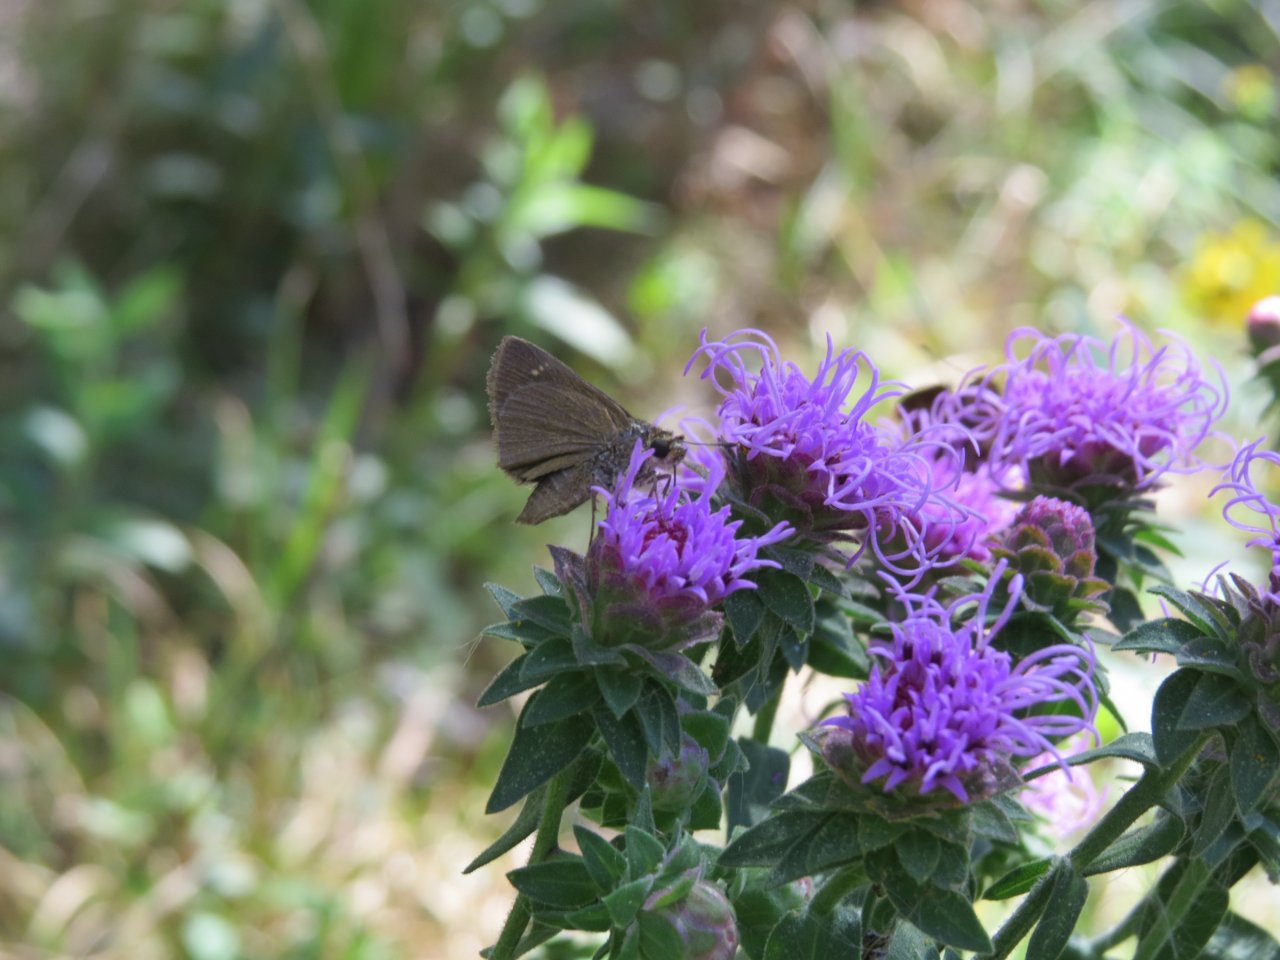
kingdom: Animalia
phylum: Arthropoda
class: Insecta
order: Lepidoptera
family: Hesperiidae
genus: Vernia
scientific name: Vernia verna
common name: Little Glassywing
